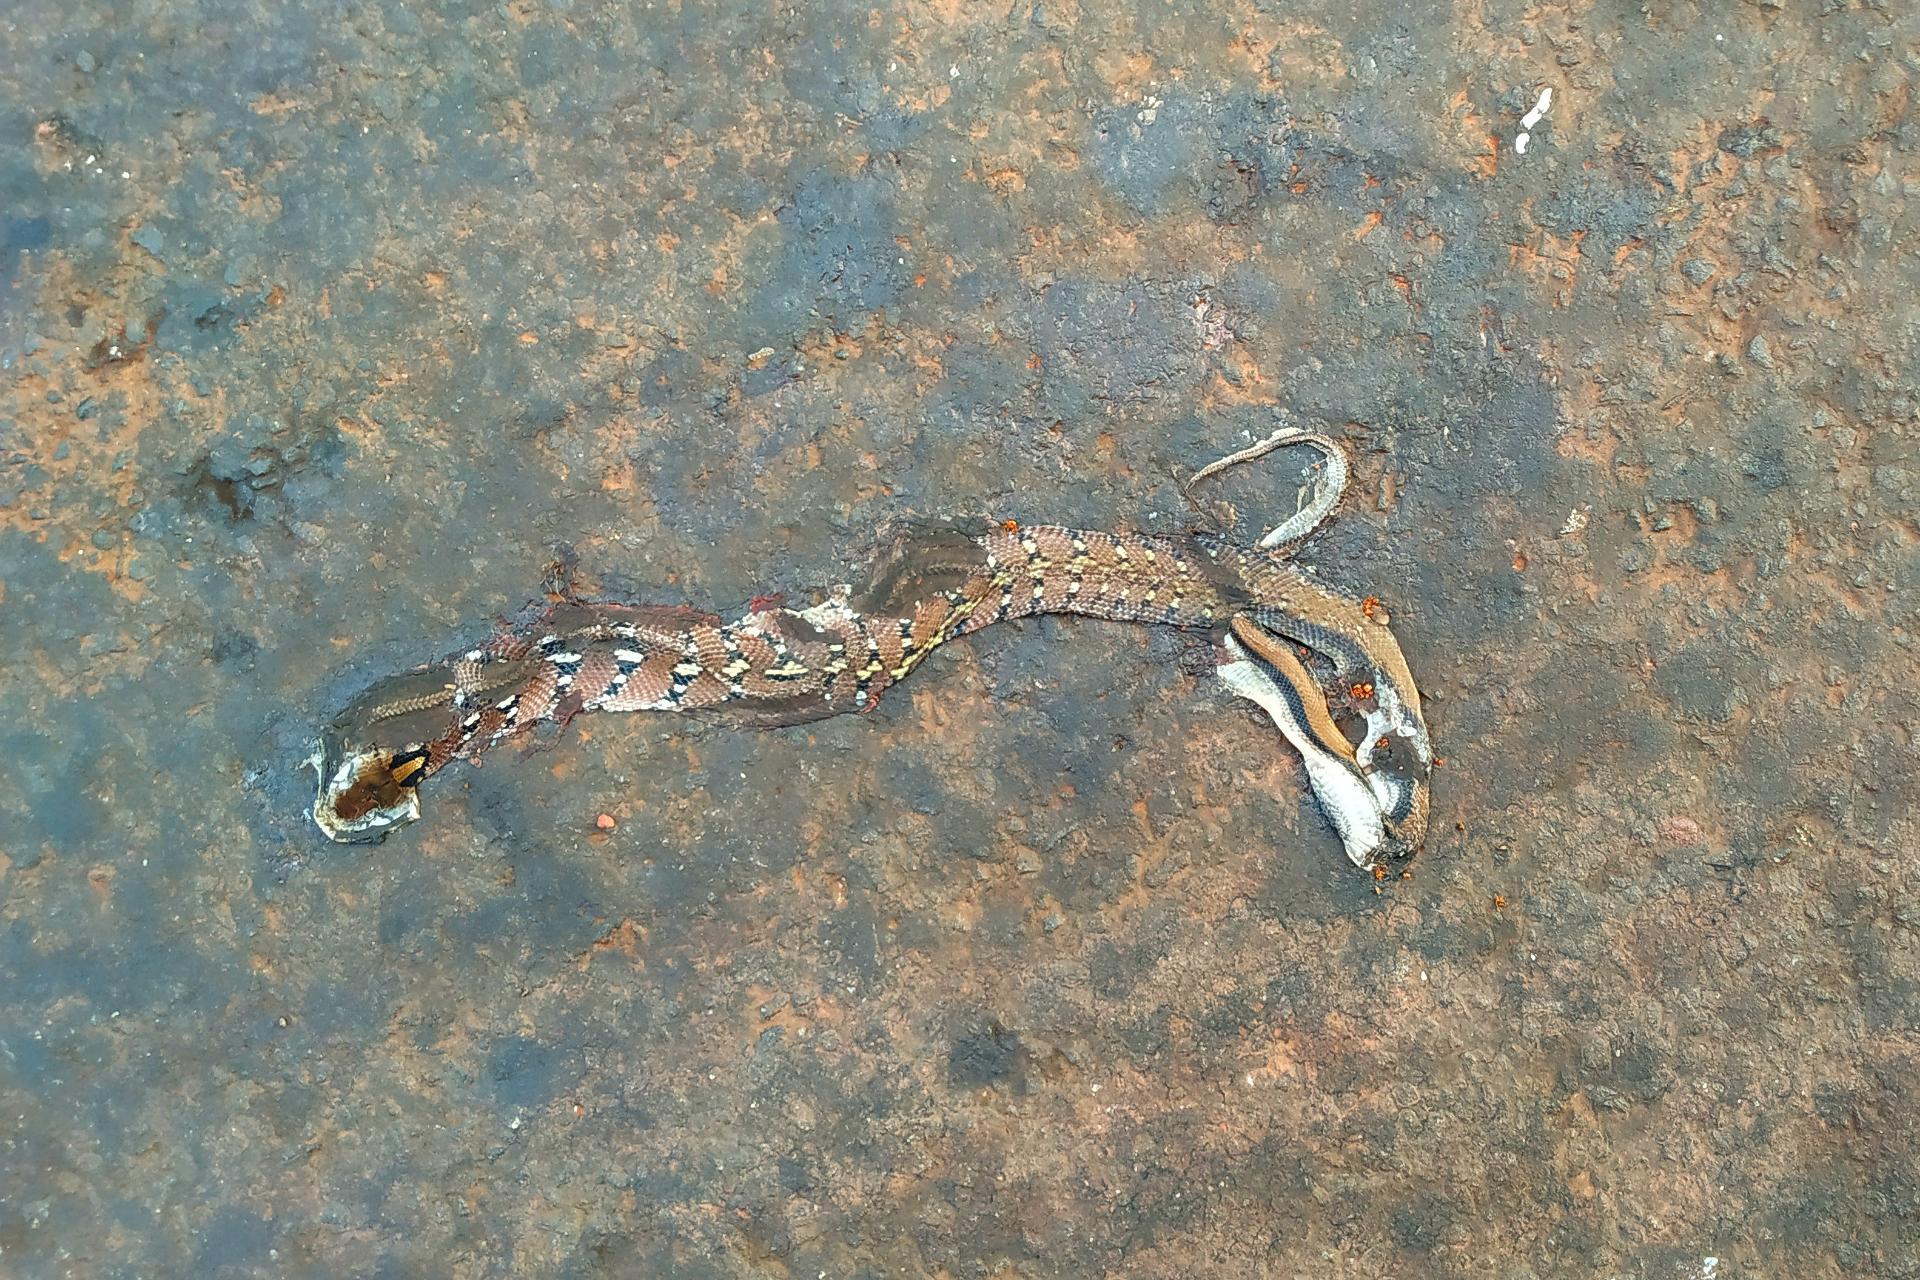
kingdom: Animalia
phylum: Chordata
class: Squamata
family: Colubridae
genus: Coelognathus
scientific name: Coelognathus helena
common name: Trinket snake
